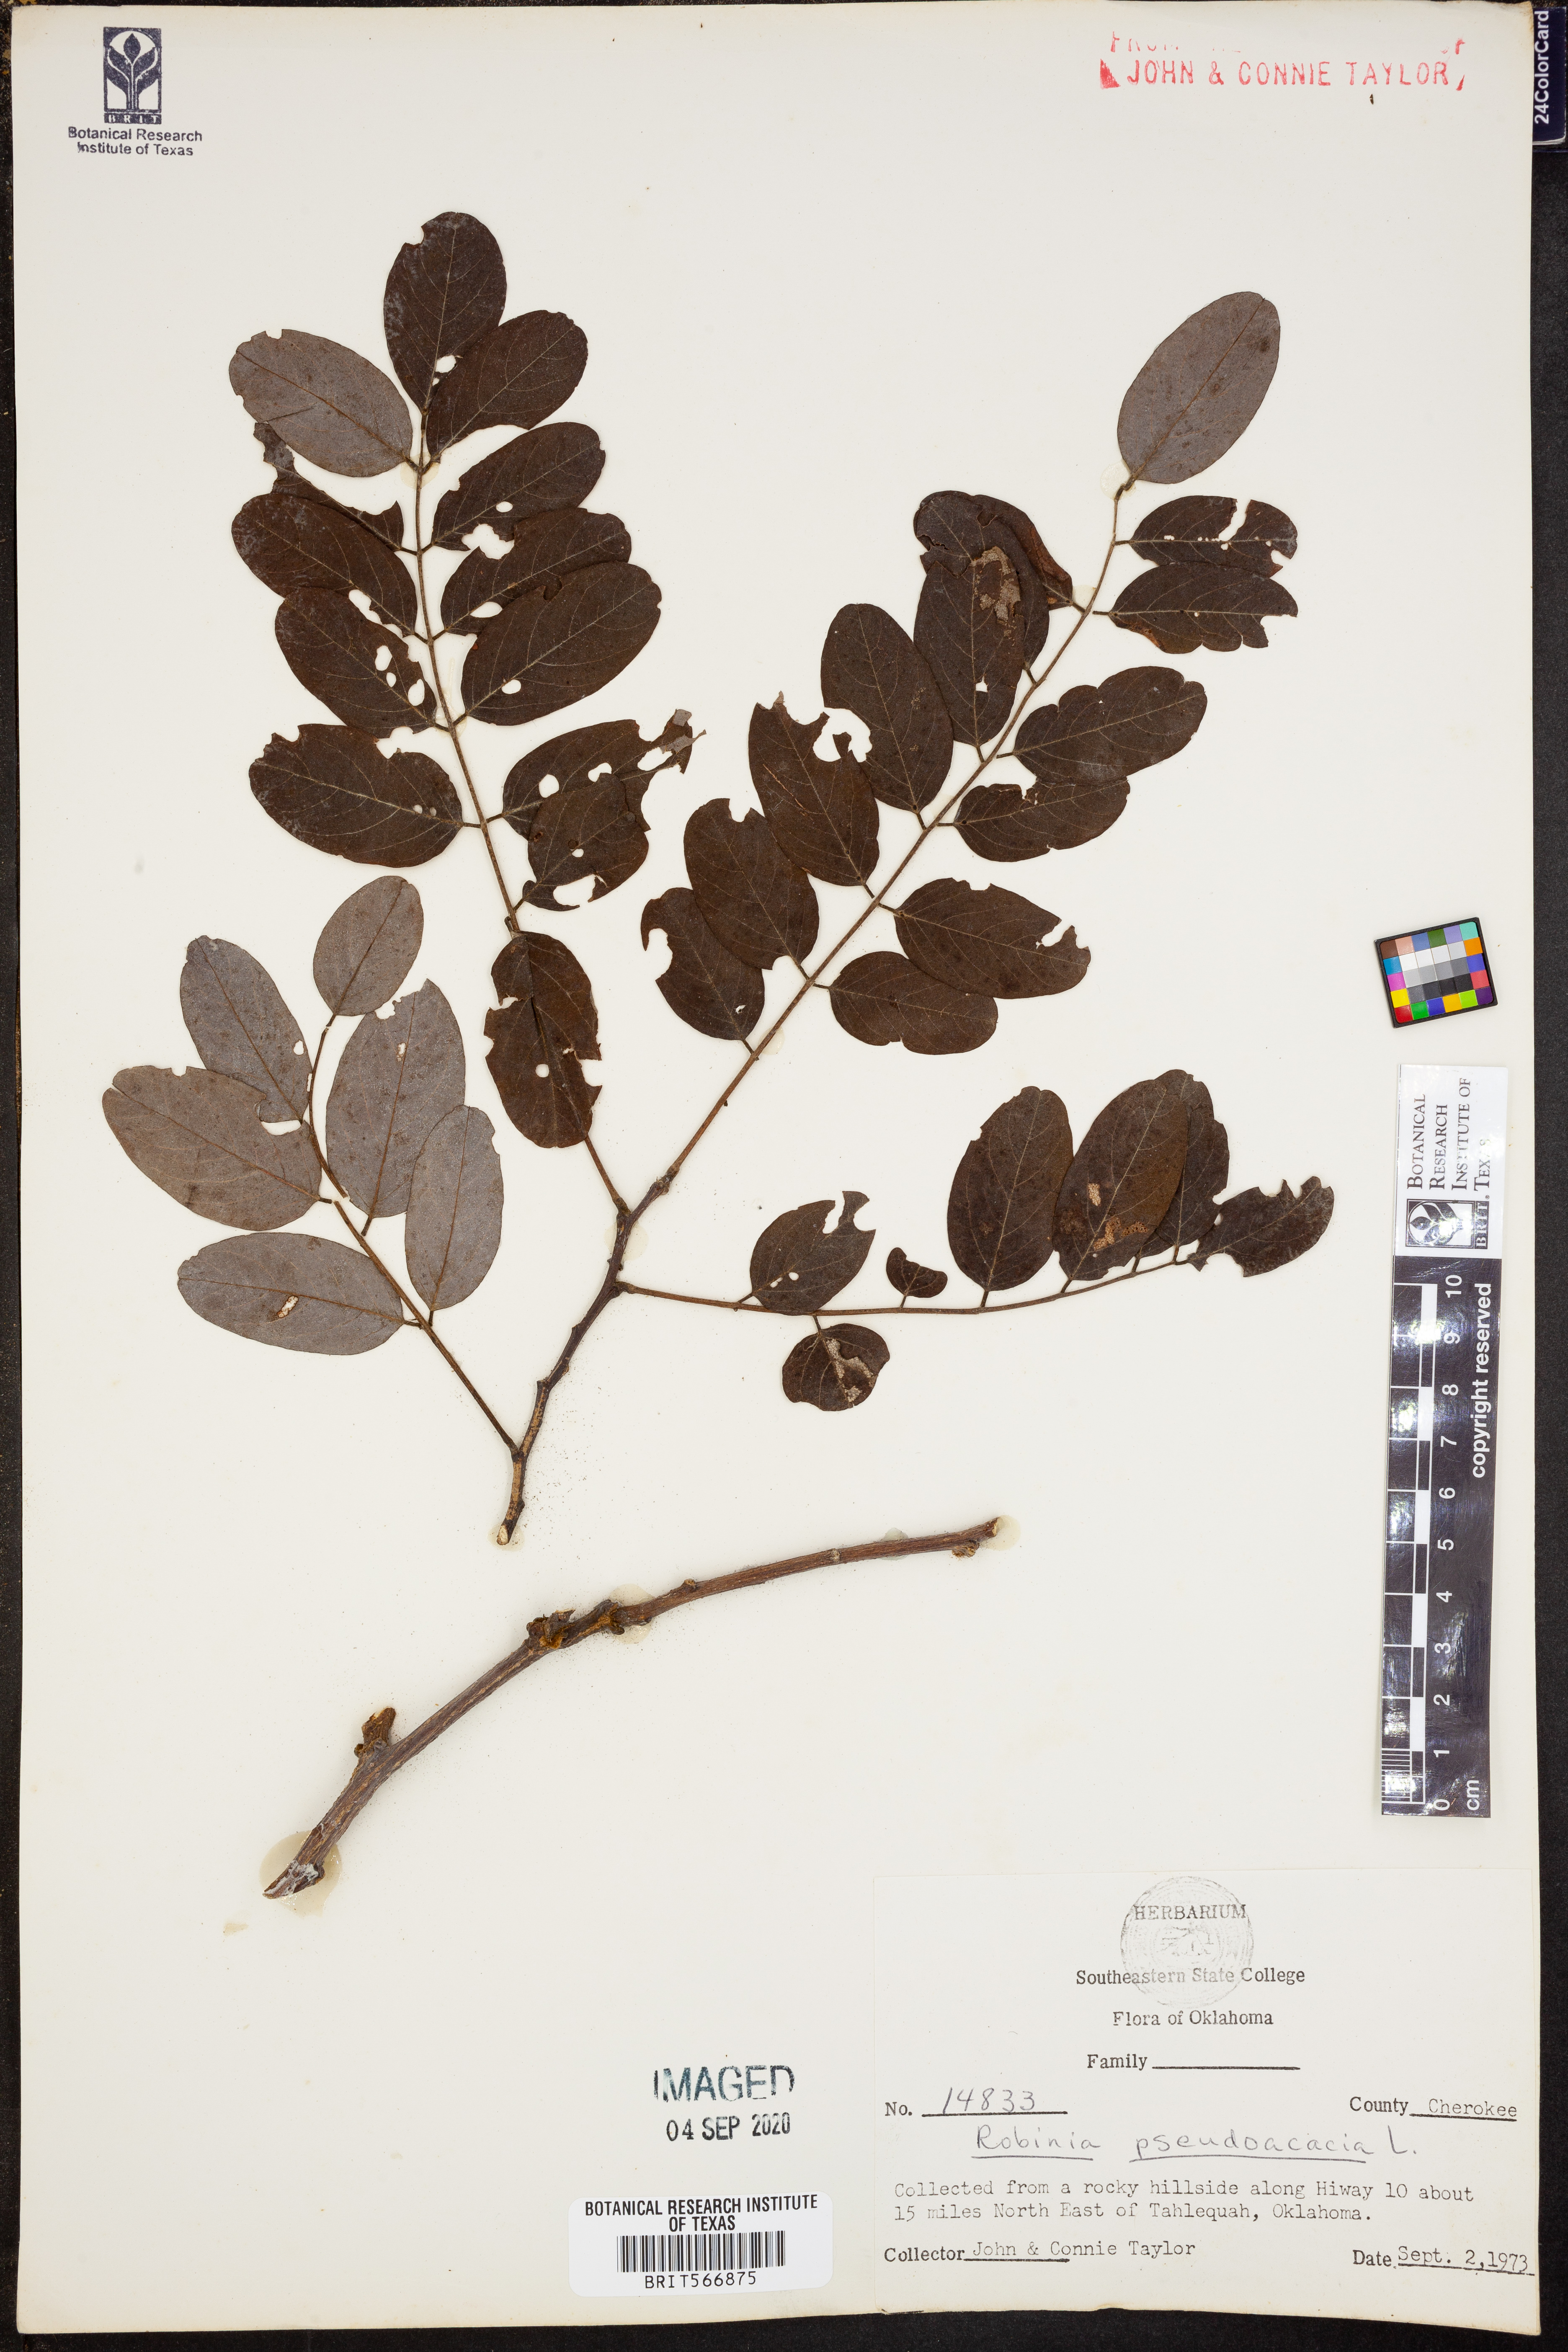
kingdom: Plantae
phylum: Tracheophyta
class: Magnoliopsida
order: Fabales
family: Fabaceae
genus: Robinia
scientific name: Robinia pseudoacacia
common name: Black locust
